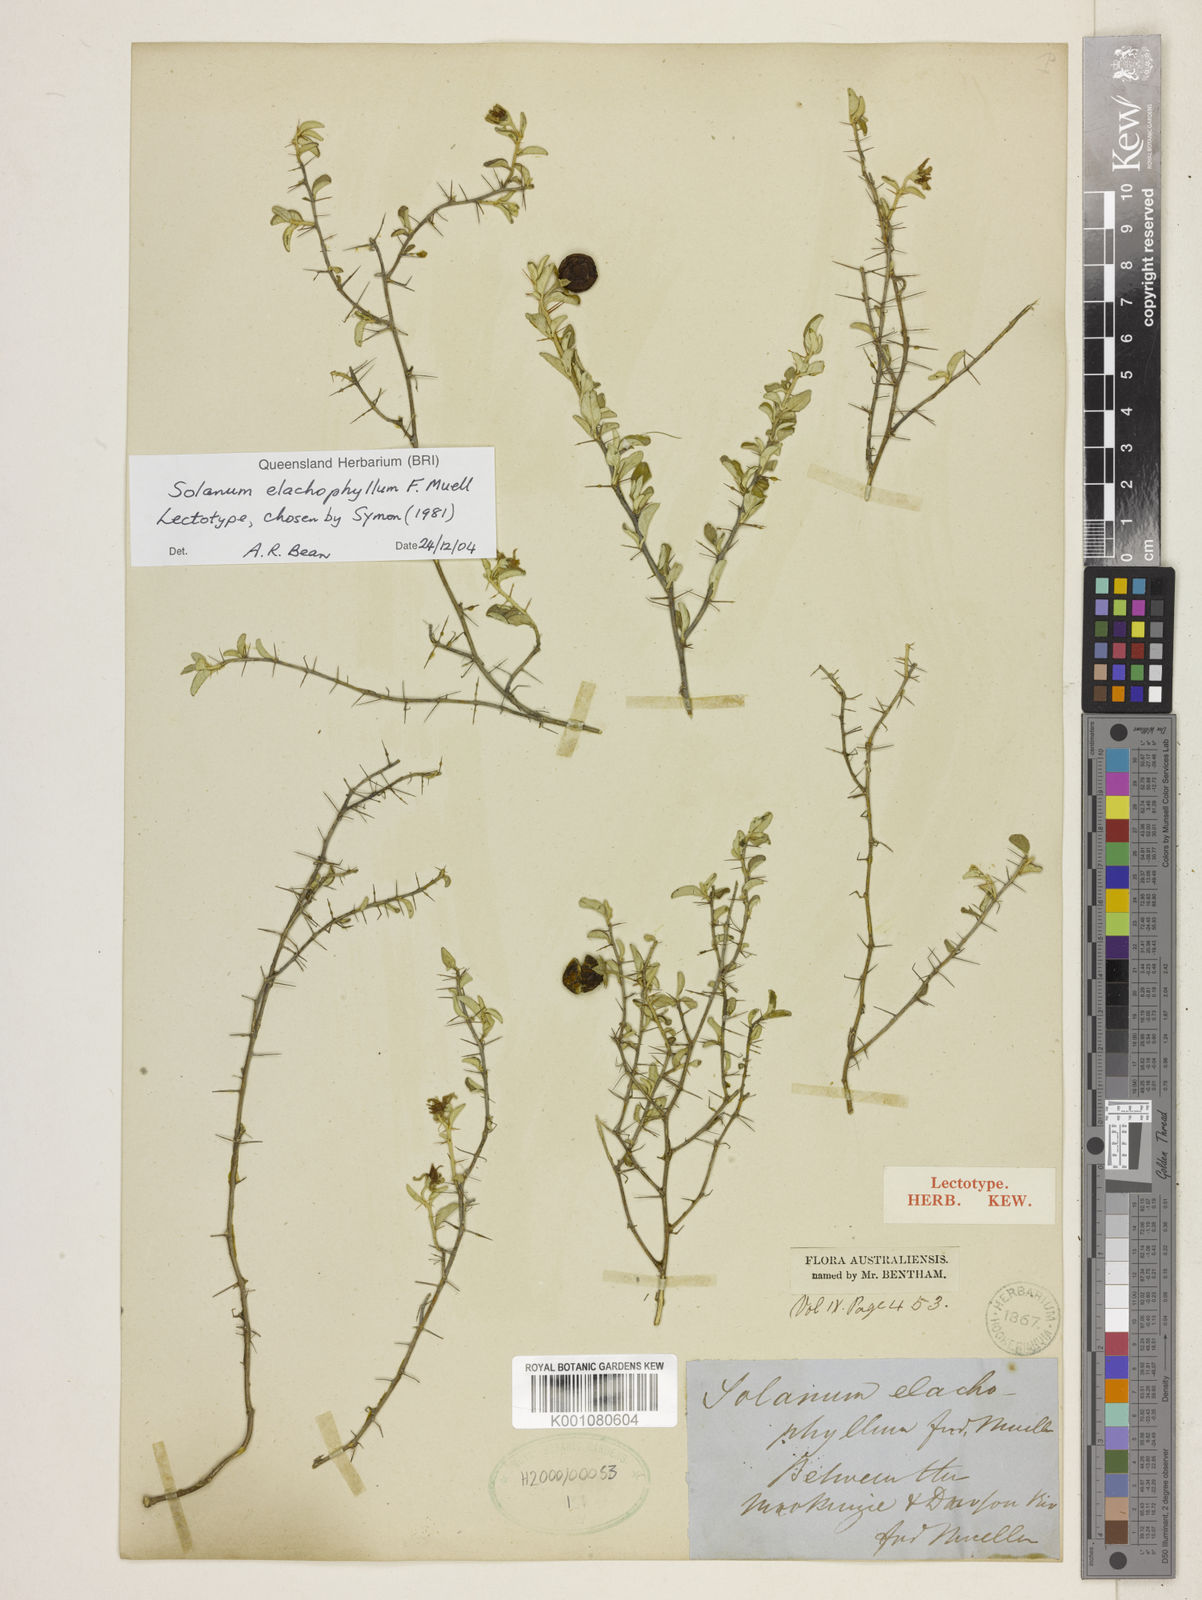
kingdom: Plantae
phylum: Tracheophyta
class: Magnoliopsida
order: Solanales
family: Solanaceae
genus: Solanum
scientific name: Solanum elachophyllum
